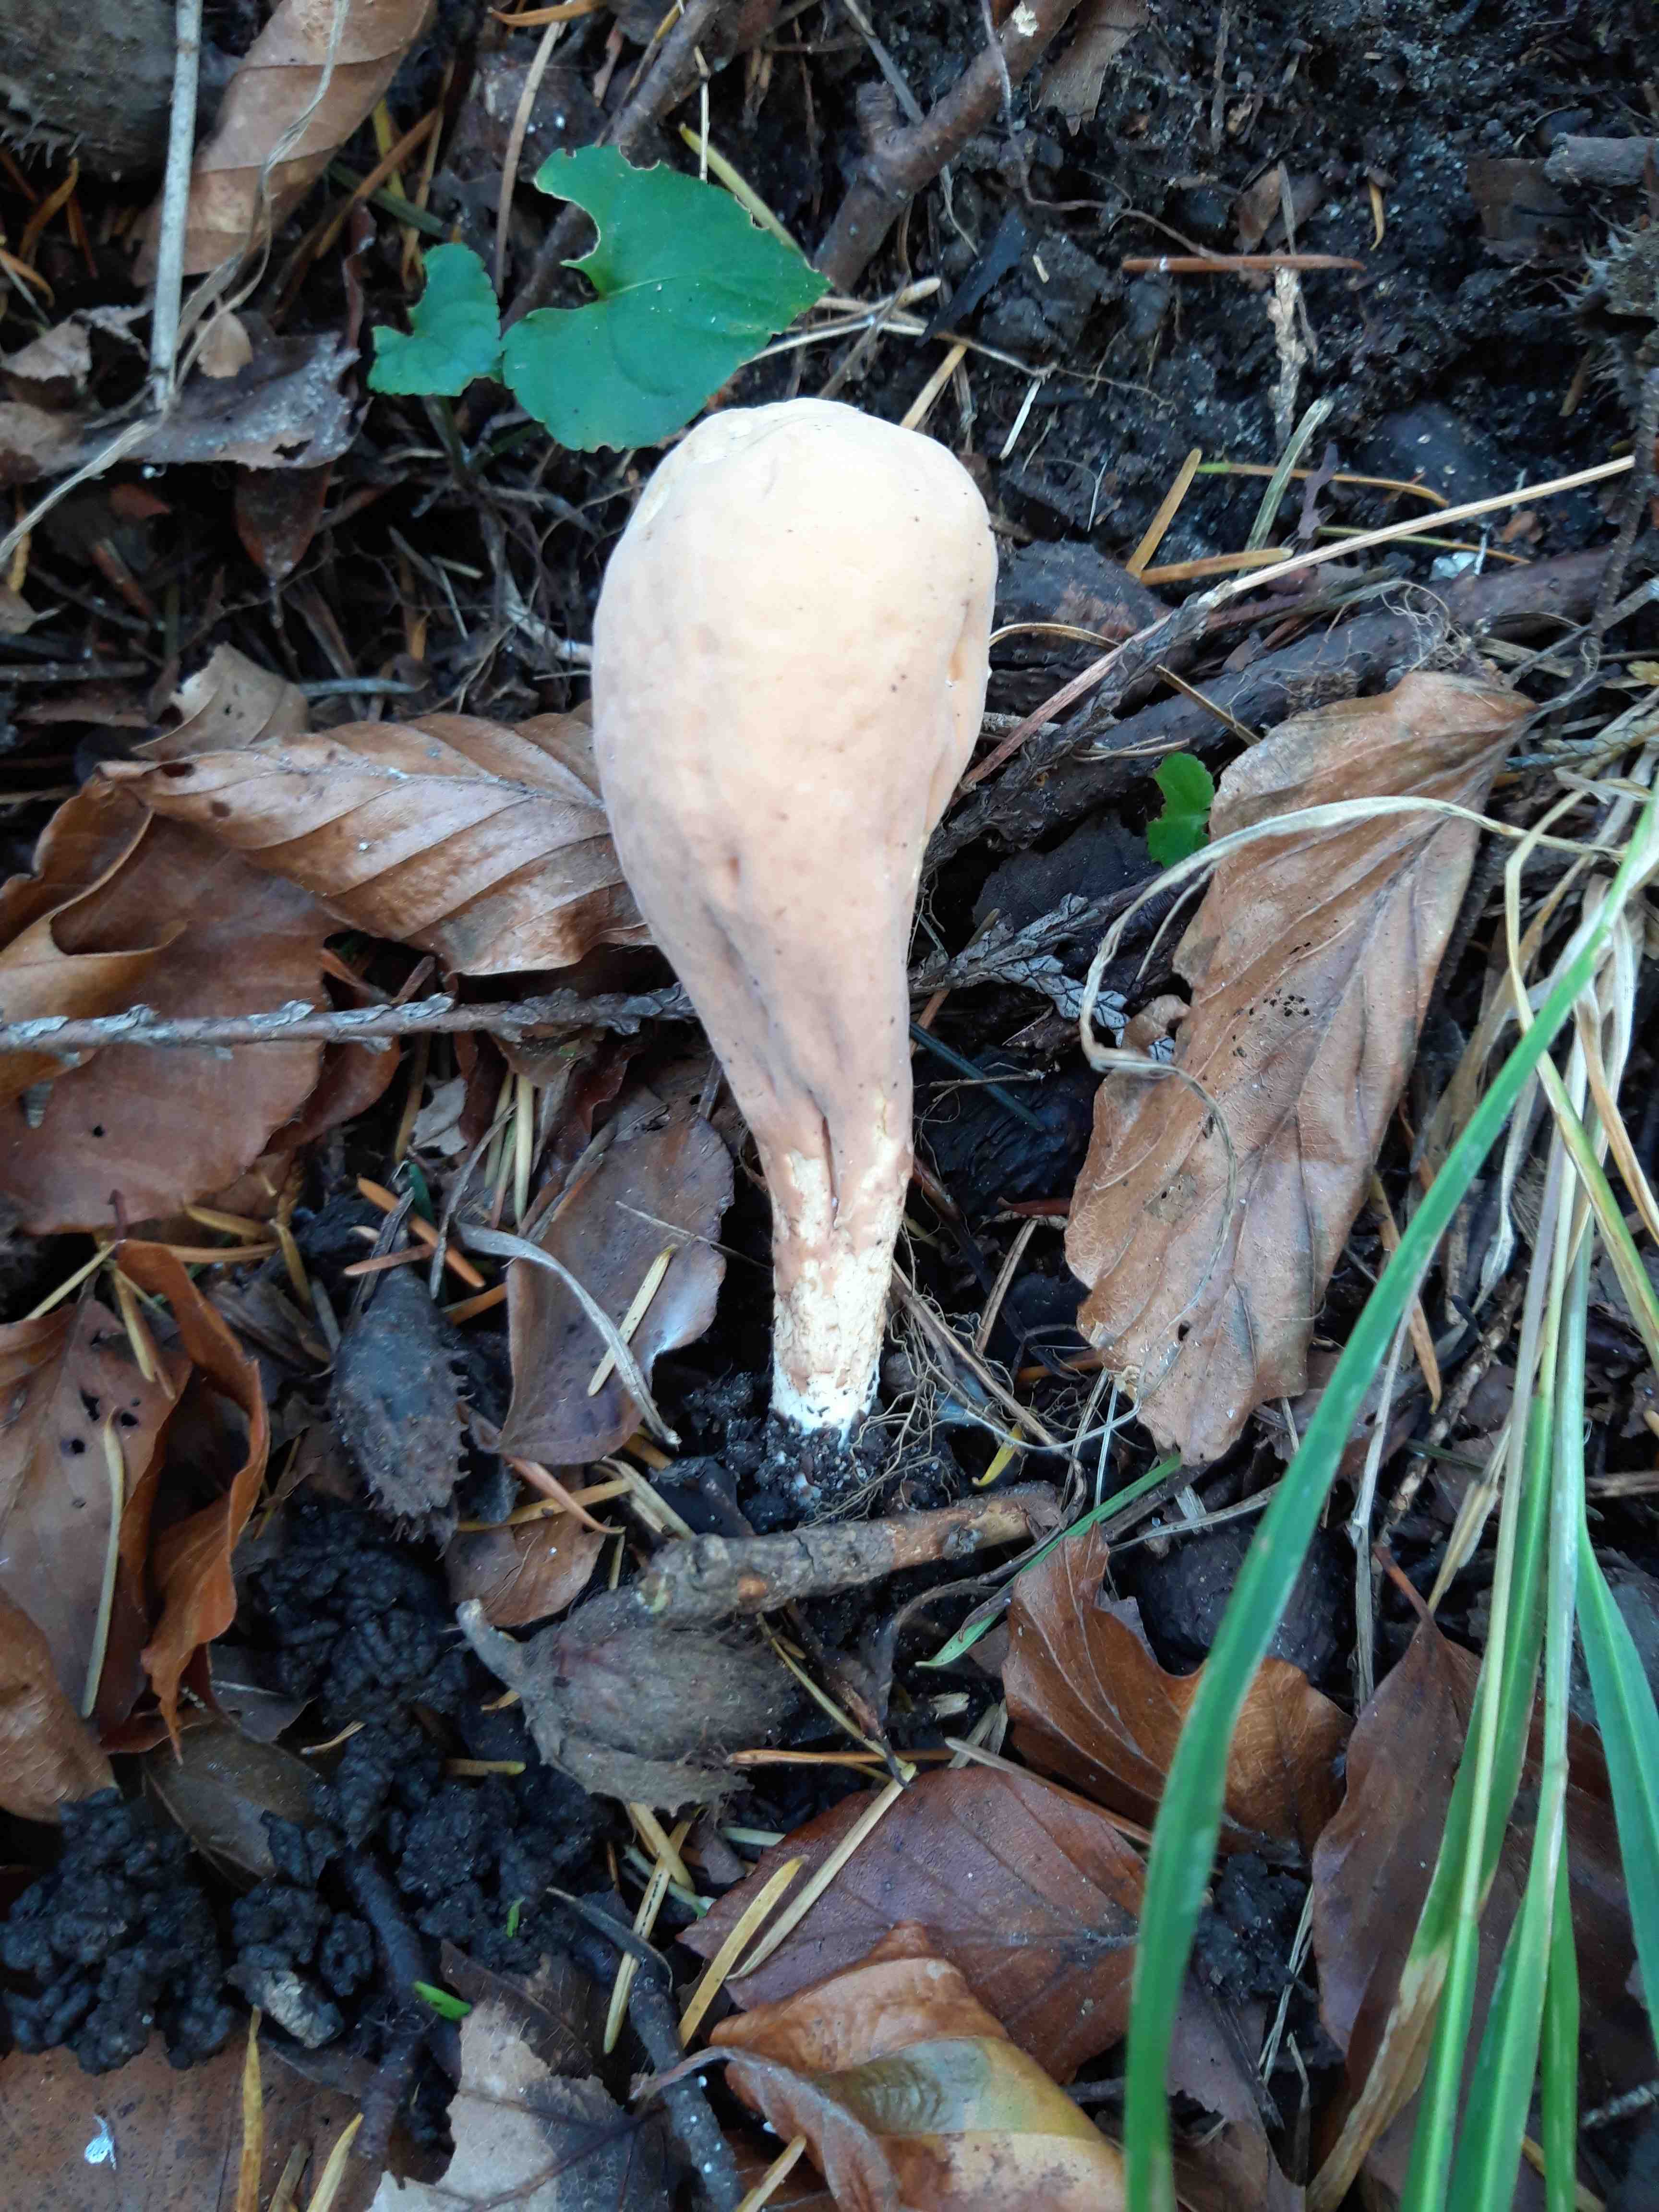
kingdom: Fungi
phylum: Basidiomycota
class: Agaricomycetes
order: Gomphales
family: Clavariadelphaceae
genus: Clavariadelphus
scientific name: Clavariadelphus pistillaris
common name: herkules-kæmpekølle
